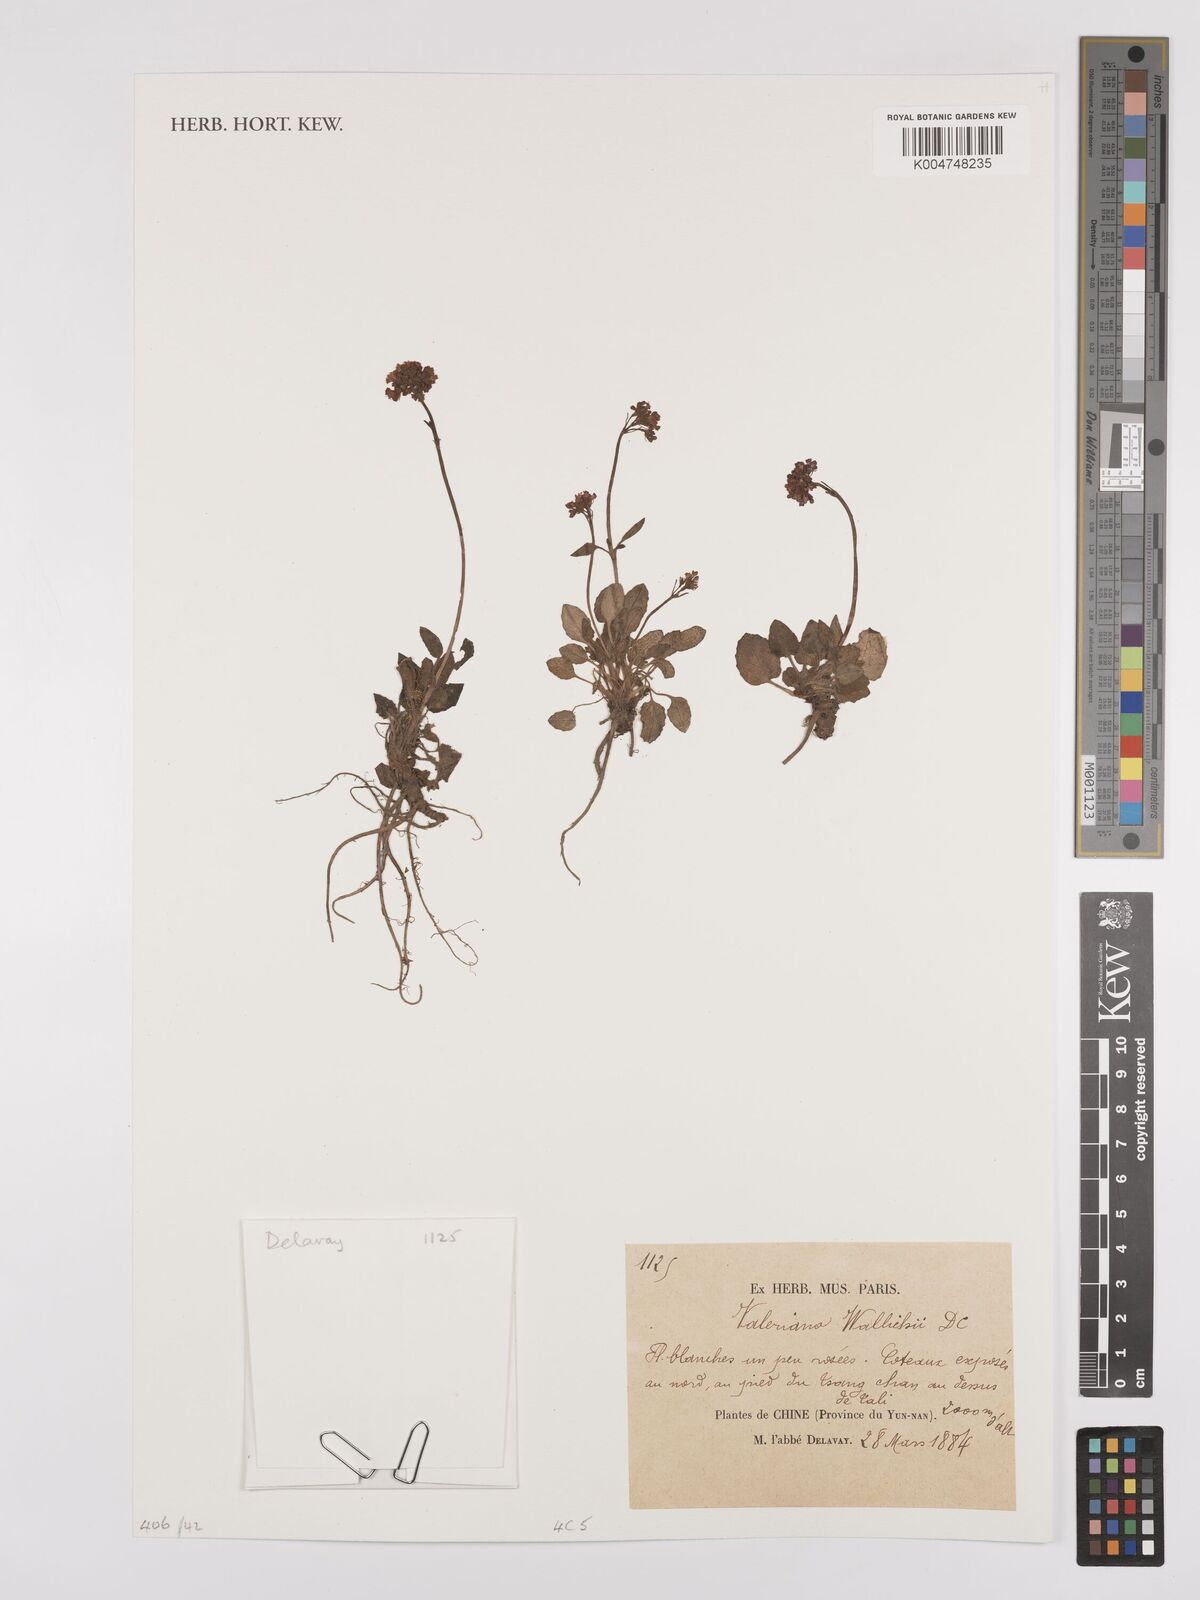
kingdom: Plantae
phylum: Tracheophyta
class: Magnoliopsida
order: Dipsacales
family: Caprifoliaceae
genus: Valeriana
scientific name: Valeriana
